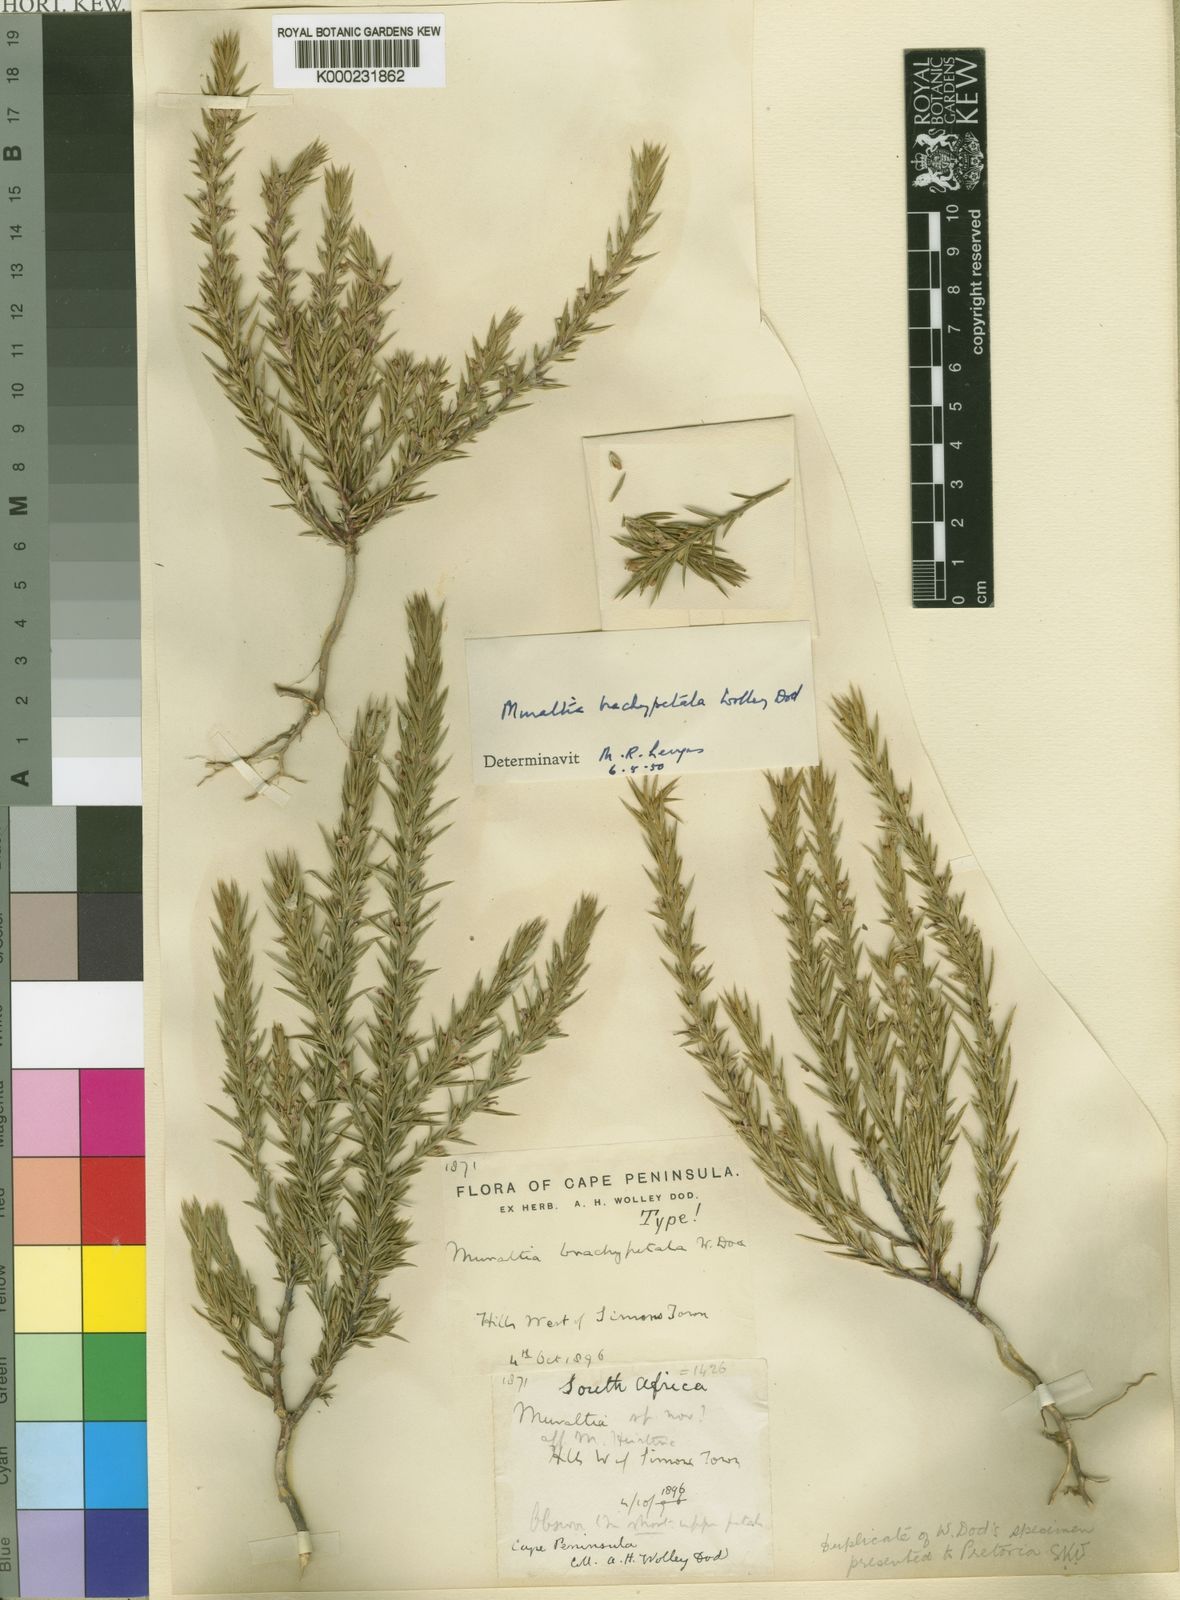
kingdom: Plantae
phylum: Tracheophyta
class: Magnoliopsida
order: Fabales
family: Polygalaceae
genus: Muraltia
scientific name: Muraltia brachypetala
